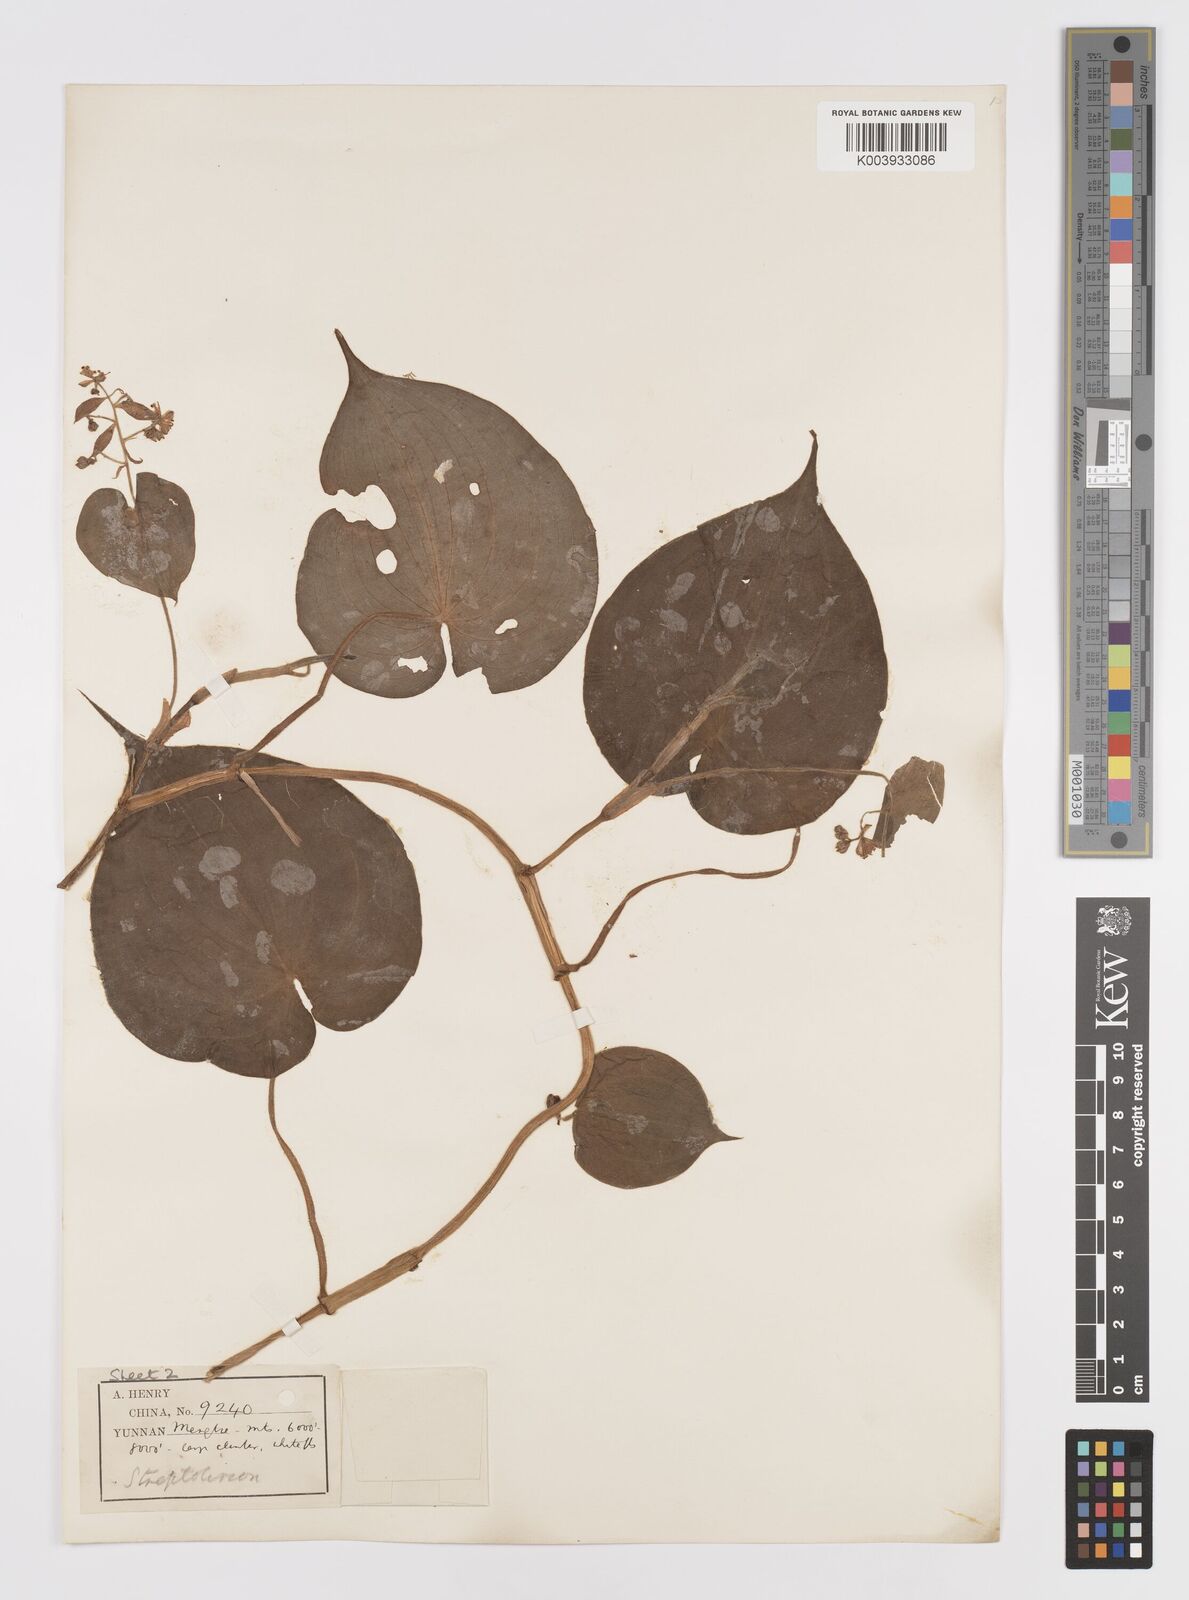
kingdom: Plantae
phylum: Tracheophyta
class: Liliopsida
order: Commelinales
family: Commelinaceae
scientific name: Commelinaceae
